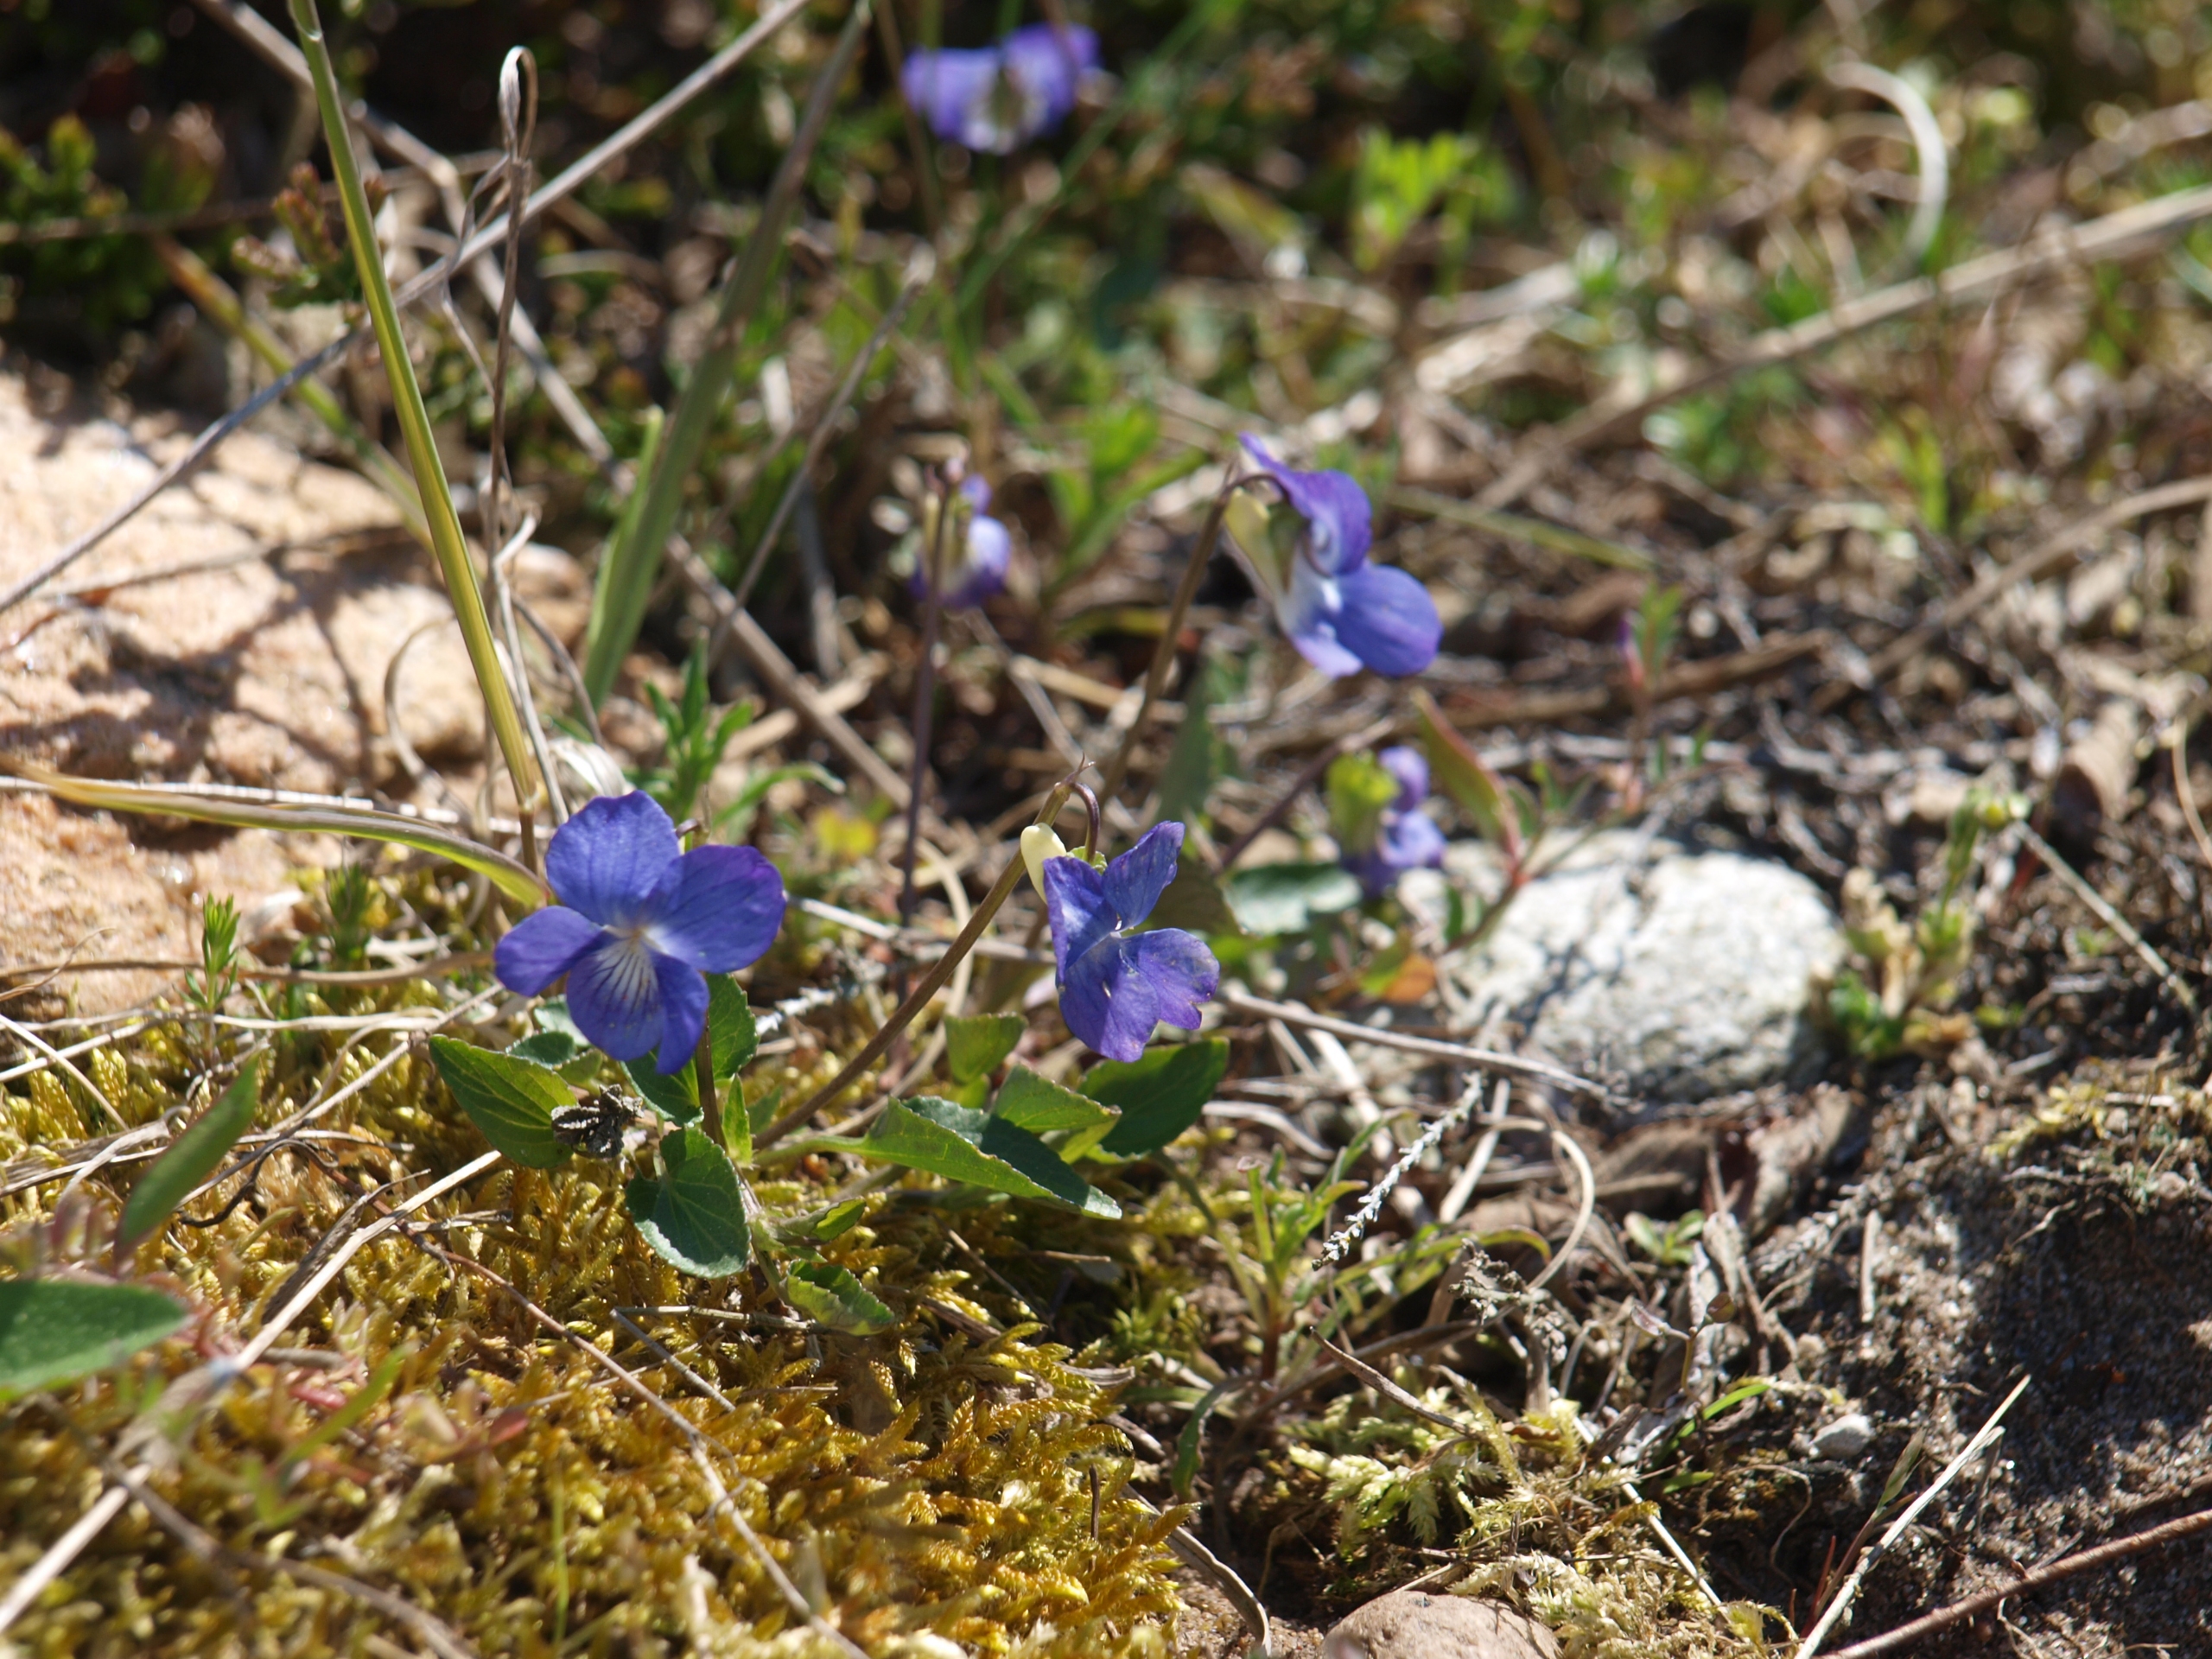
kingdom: Plantae
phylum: Tracheophyta
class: Magnoliopsida
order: Malpighiales
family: Violaceae
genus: Viola
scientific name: Viola canina
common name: Hunde-viol
